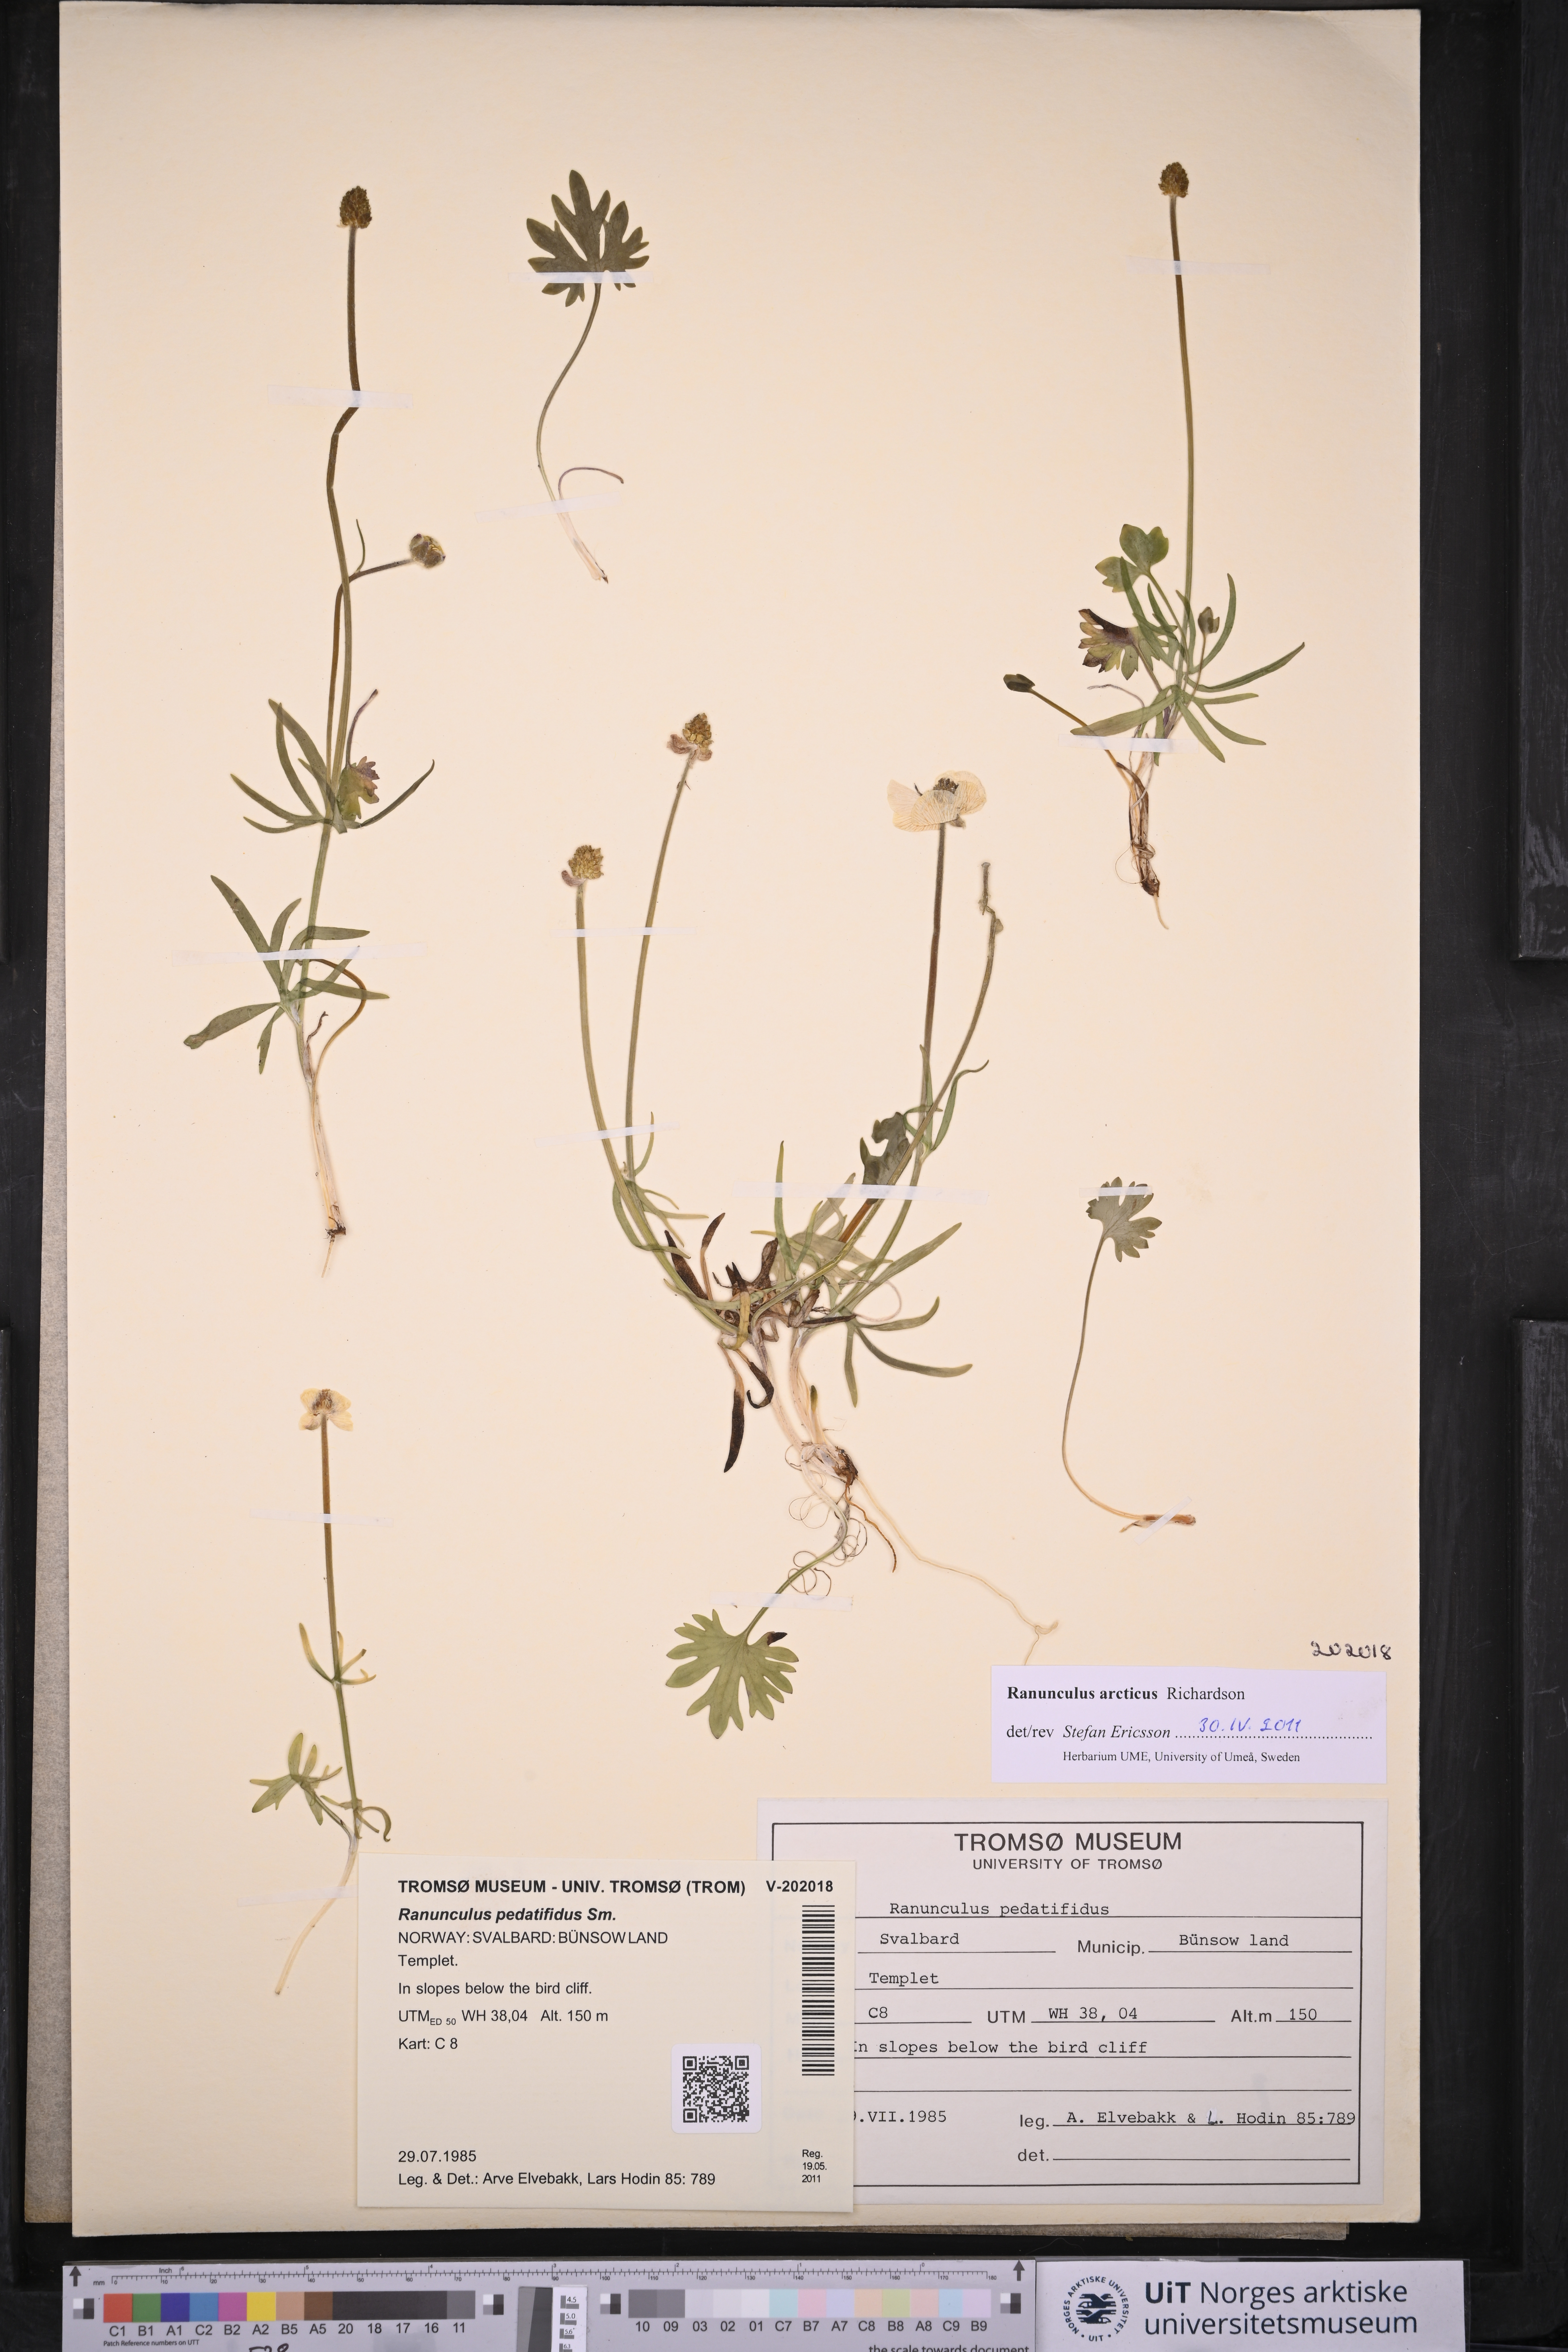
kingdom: Plantae
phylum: Tracheophyta
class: Magnoliopsida
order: Ranunculales
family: Ranunculaceae
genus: Ranunculus
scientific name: Ranunculus arcticus
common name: Bird's-foot buttercup
